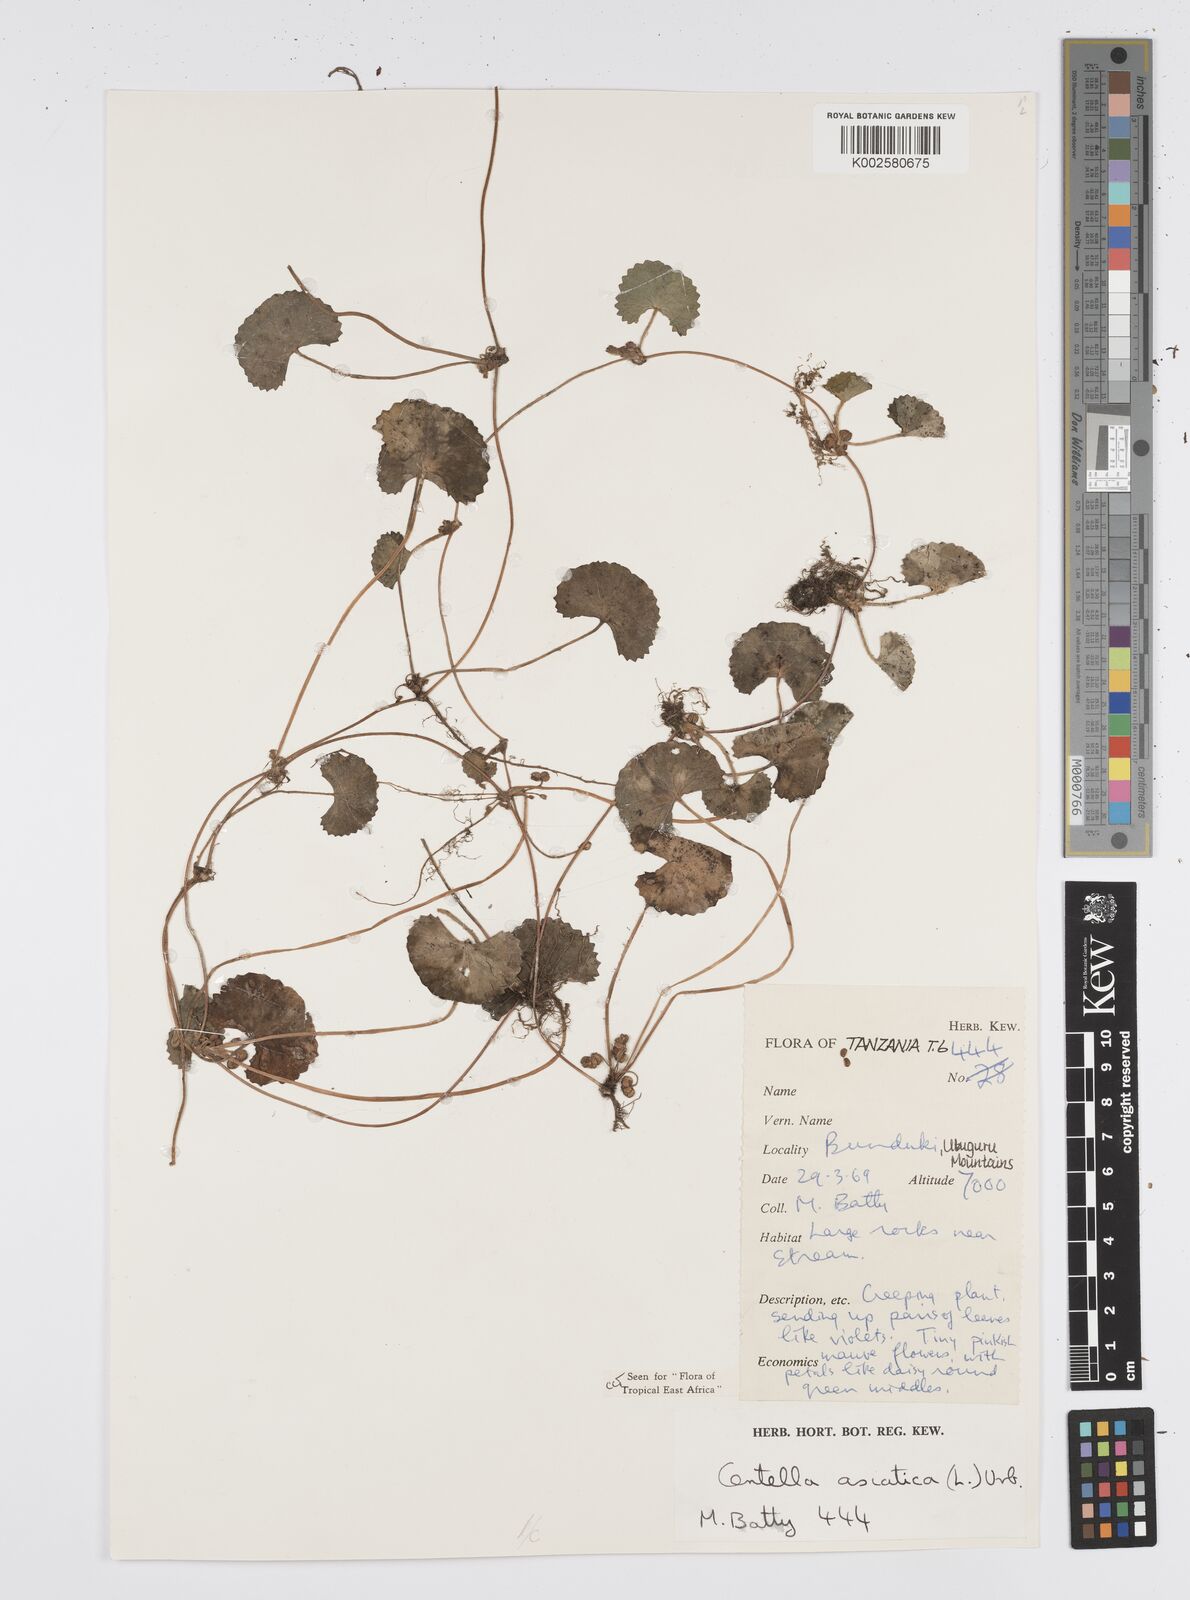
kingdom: Plantae
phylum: Tracheophyta
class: Magnoliopsida
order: Apiales
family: Apiaceae
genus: Centella
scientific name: Centella asiatica
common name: Spadeleaf
